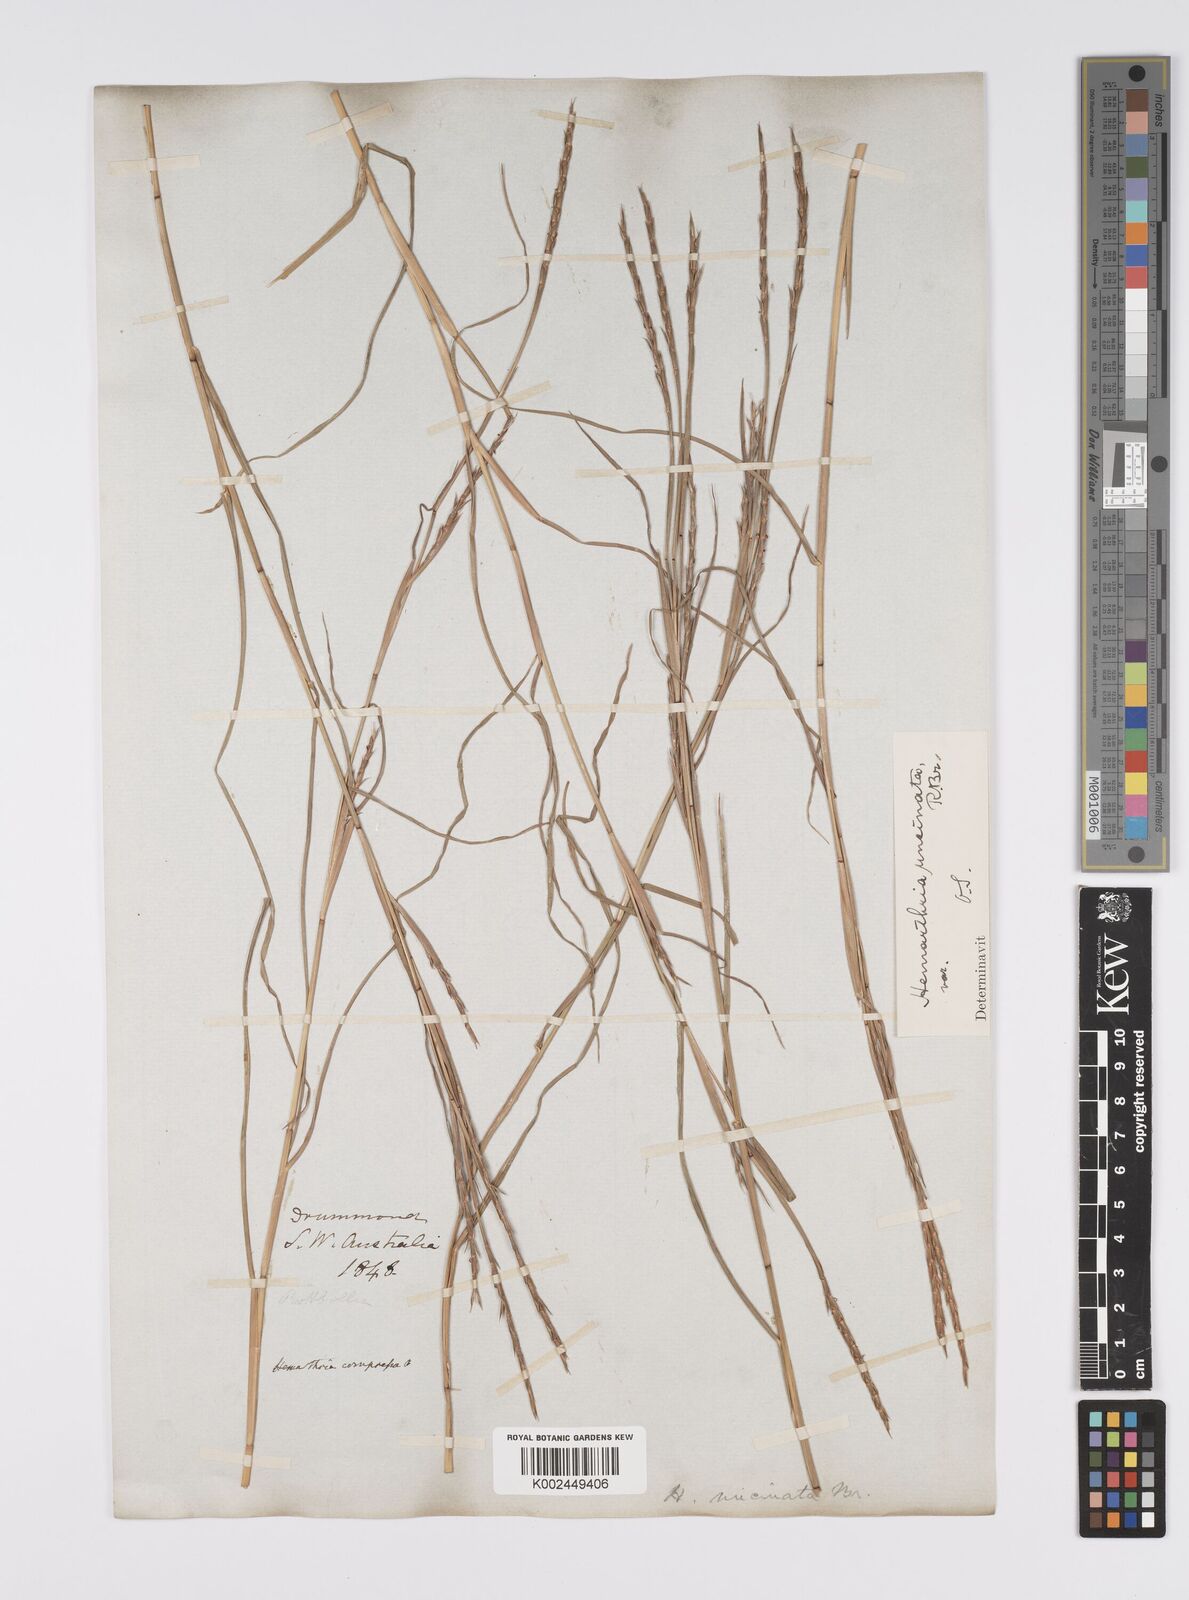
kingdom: Plantae
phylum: Tracheophyta
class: Liliopsida
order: Poales
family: Poaceae
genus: Hemarthria
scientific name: Hemarthria uncinata
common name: Matgrass
